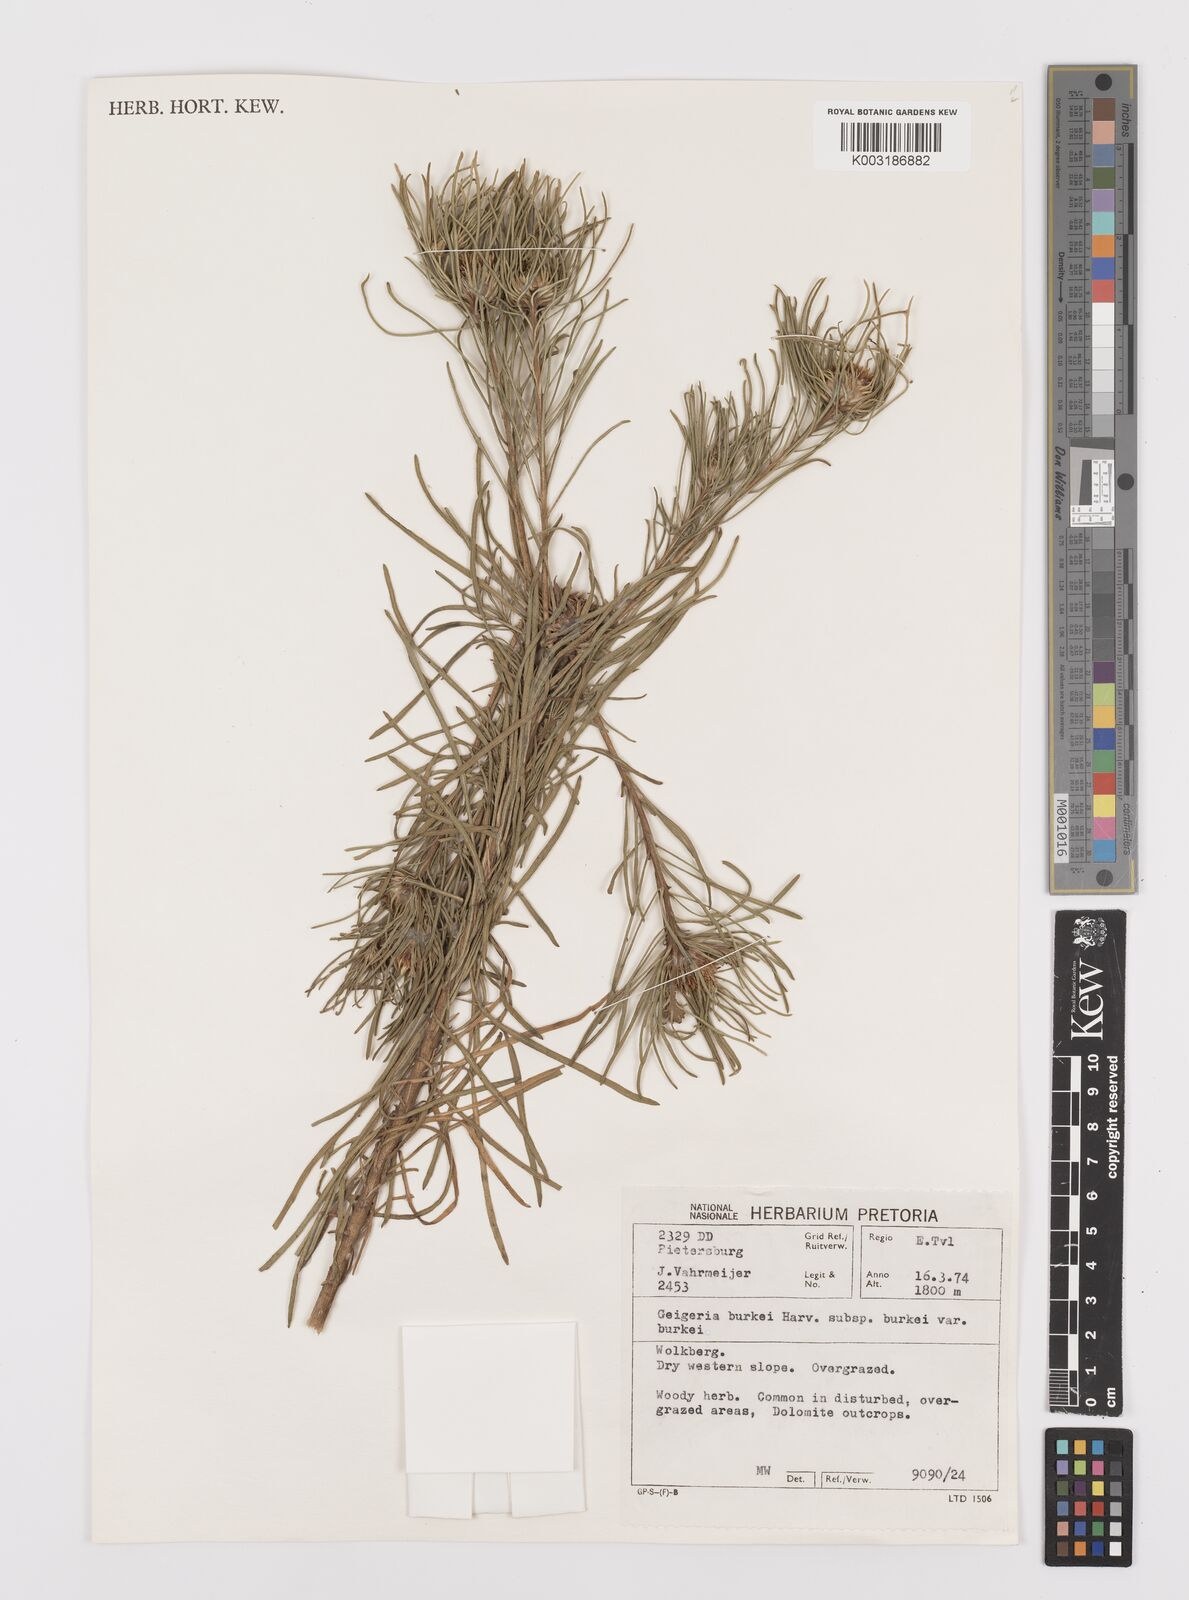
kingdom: Plantae
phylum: Tracheophyta
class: Magnoliopsida
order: Asterales
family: Asteraceae
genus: Geigeria
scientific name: Geigeria burkei
